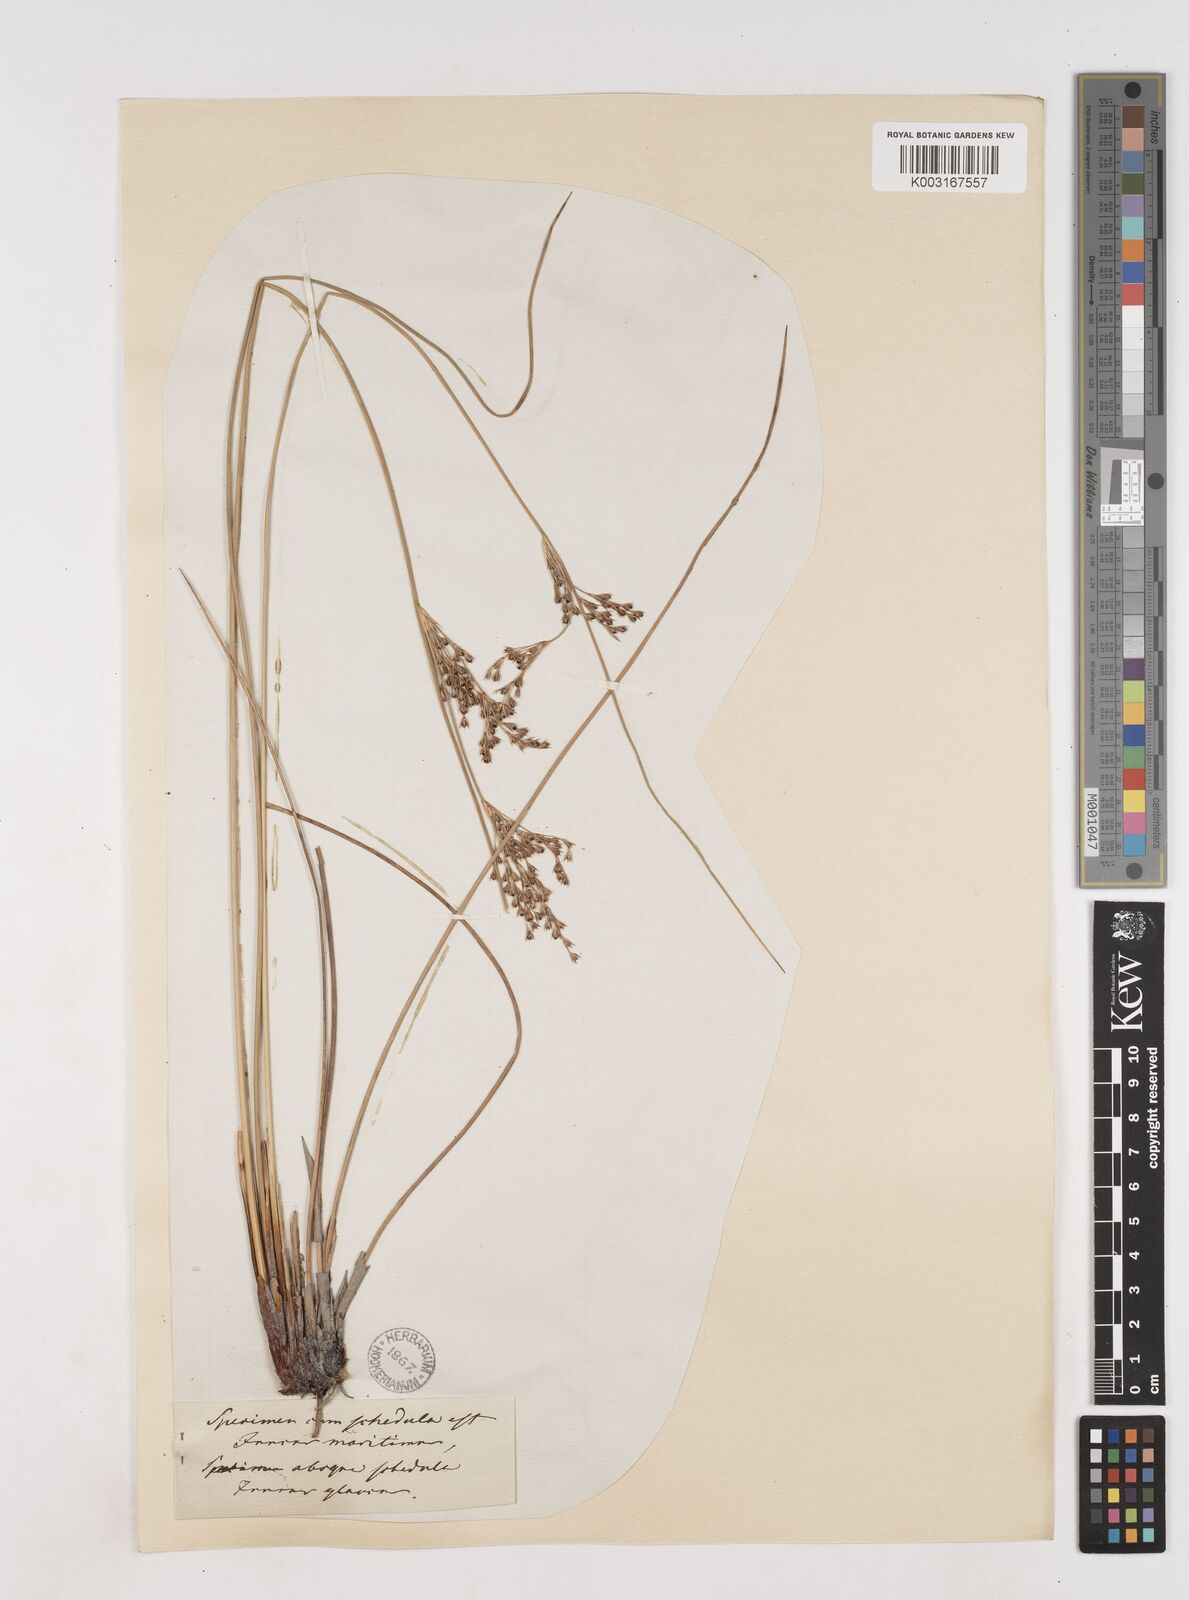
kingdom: Plantae
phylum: Tracheophyta
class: Liliopsida
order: Poales
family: Juncaceae
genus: Juncus
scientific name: Juncus inflexus
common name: Hard rush
